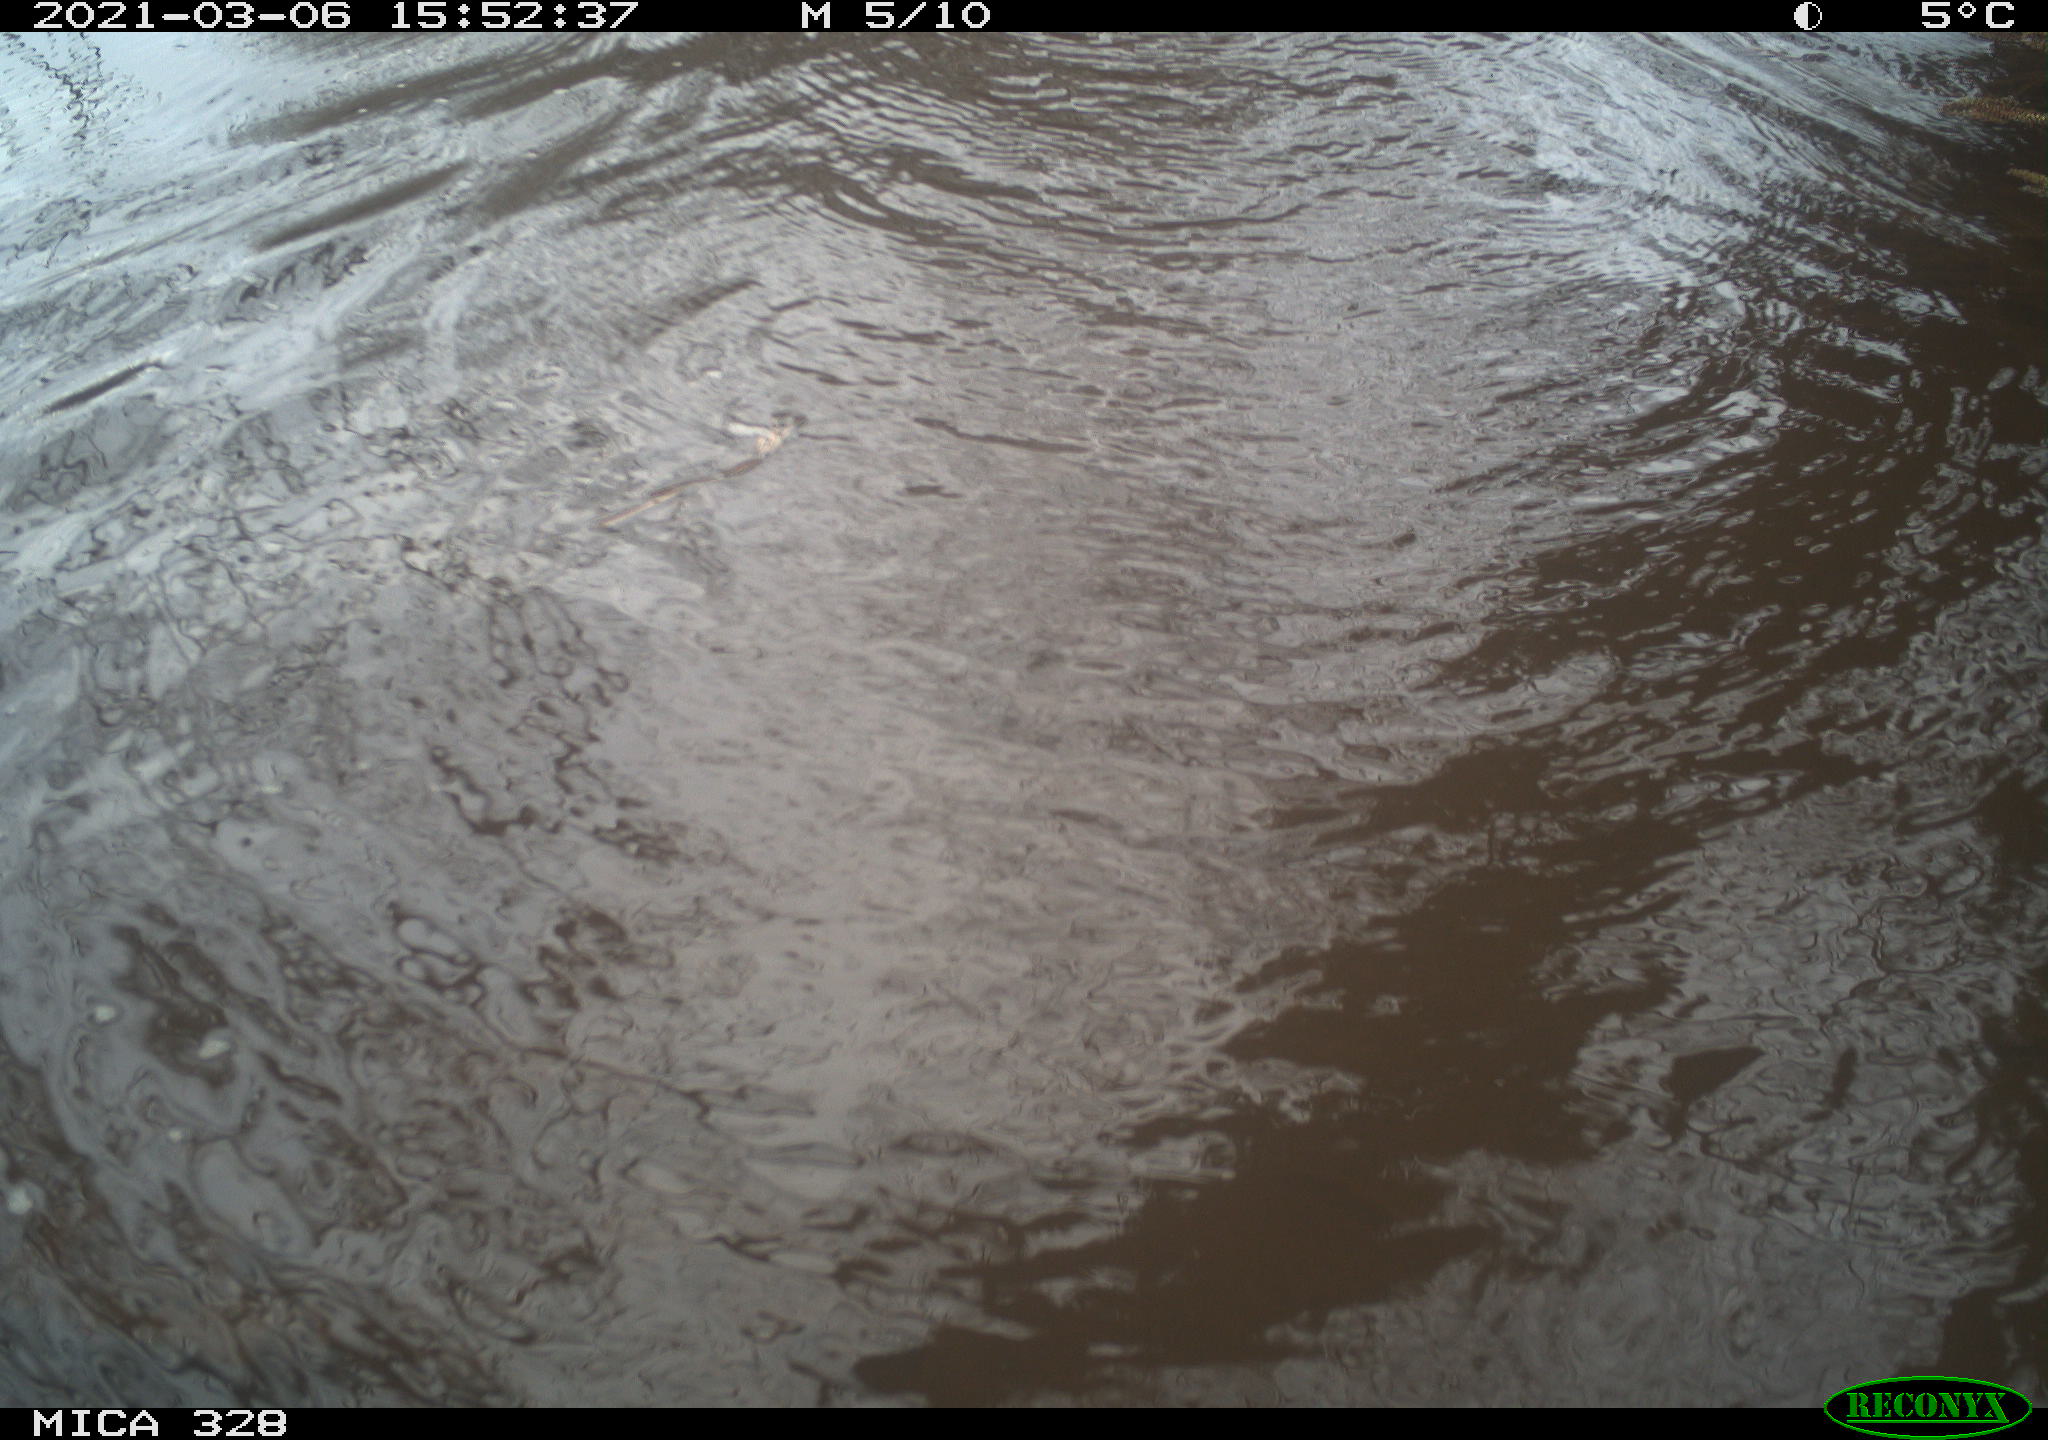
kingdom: Animalia
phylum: Chordata
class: Mammalia
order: Rodentia
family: Cricetidae
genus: Ondatra
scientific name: Ondatra zibethicus
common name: Muskrat
